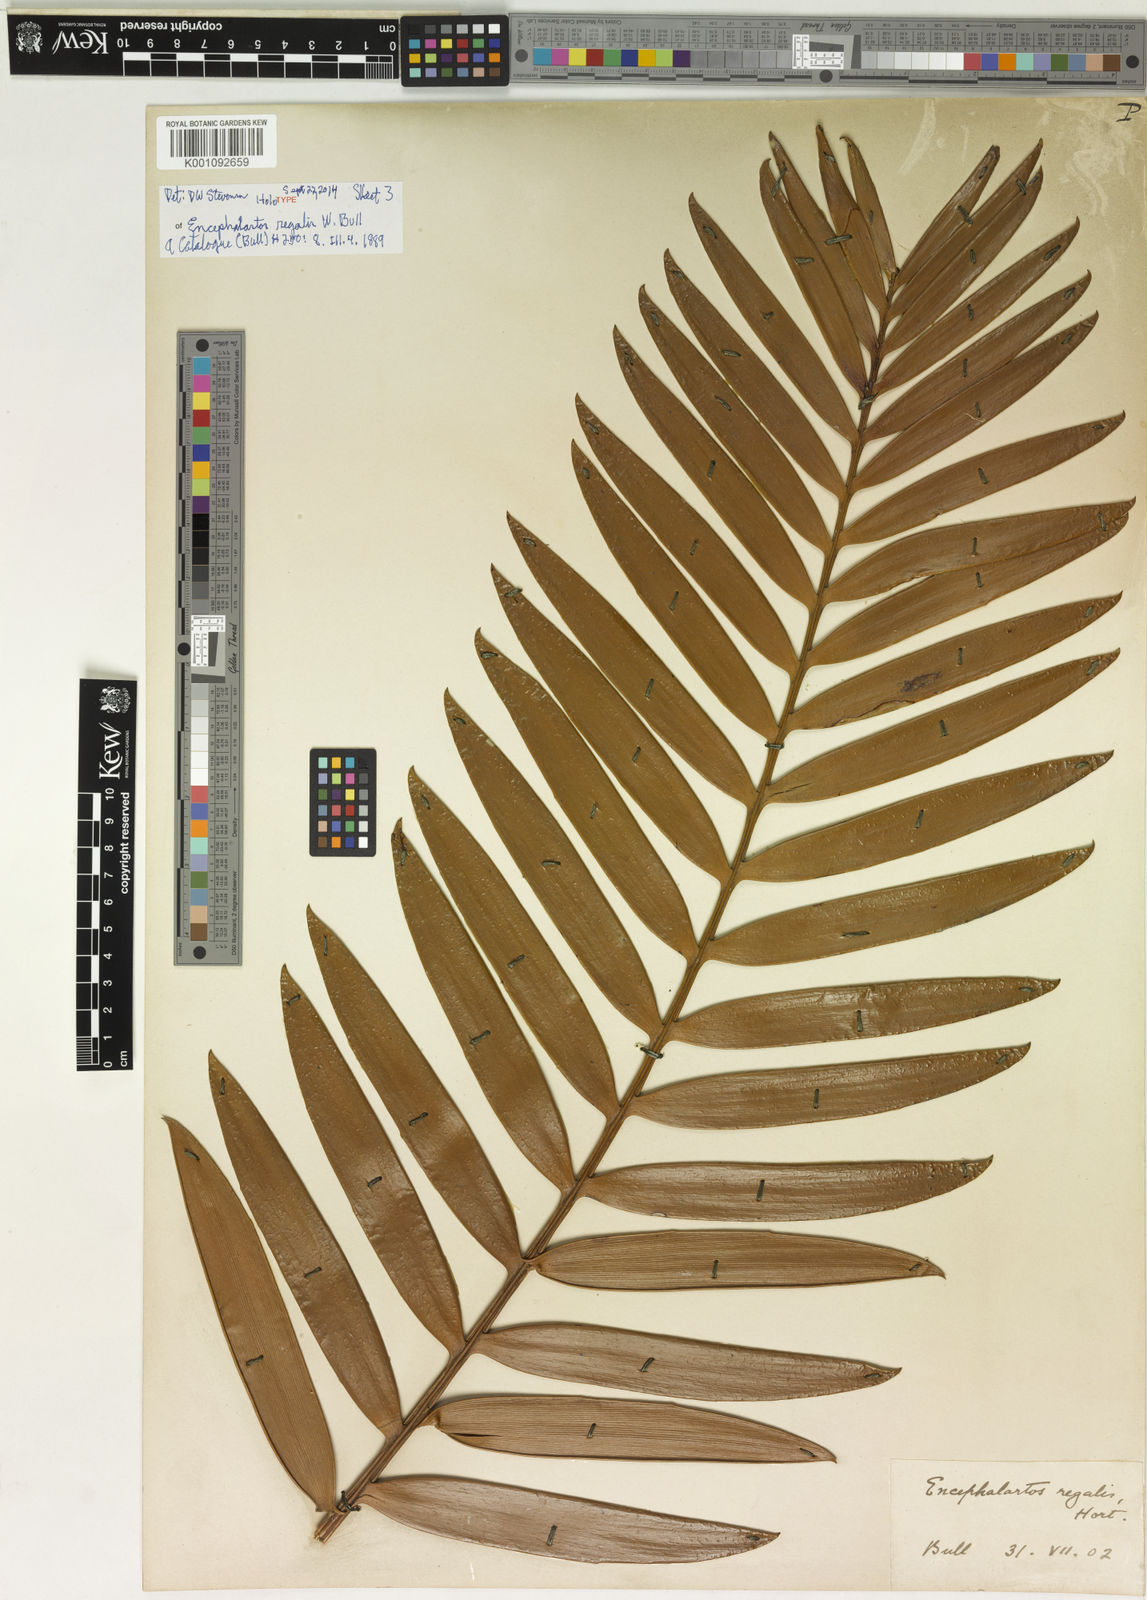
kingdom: Plantae
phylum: Tracheophyta
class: Cycadopsida
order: Cycadales
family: Zamiaceae
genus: Encephalartos
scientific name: Encephalartos altensteinii
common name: Eastern cape cycad
